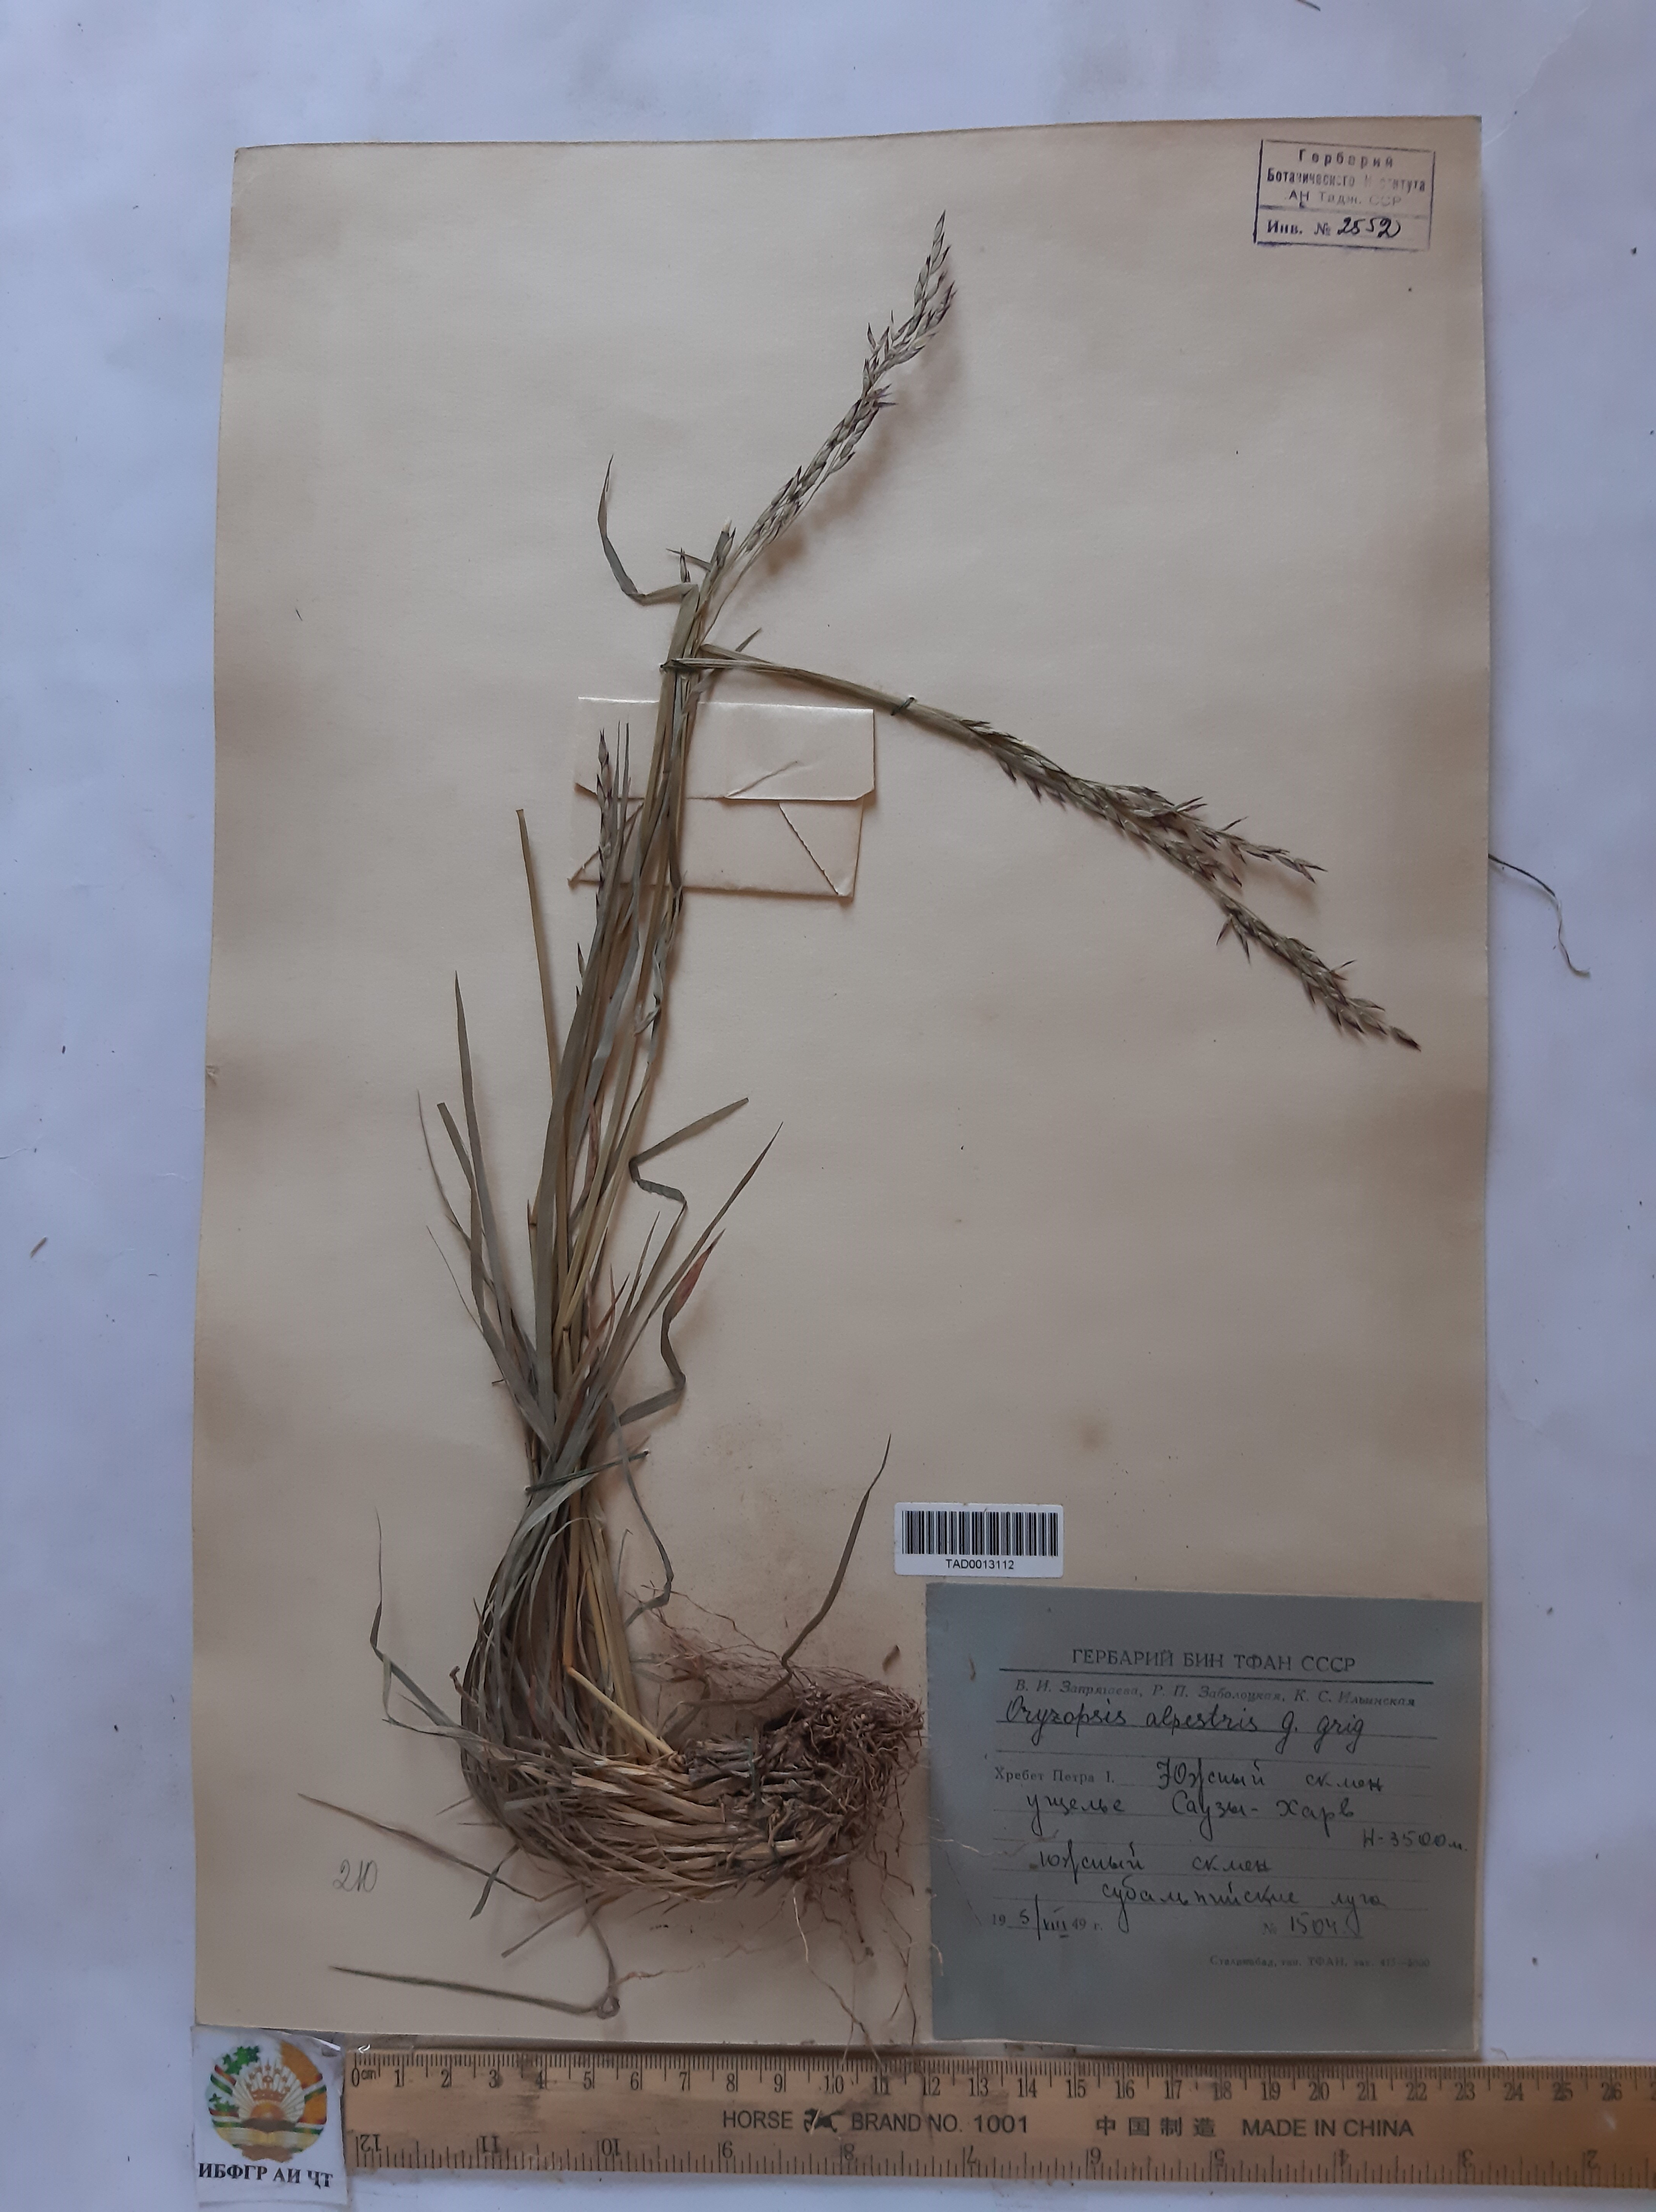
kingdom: Plantae
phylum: Tracheophyta
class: Liliopsida
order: Poales
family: Poaceae
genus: Piptatherum
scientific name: Piptatherum alpestre
